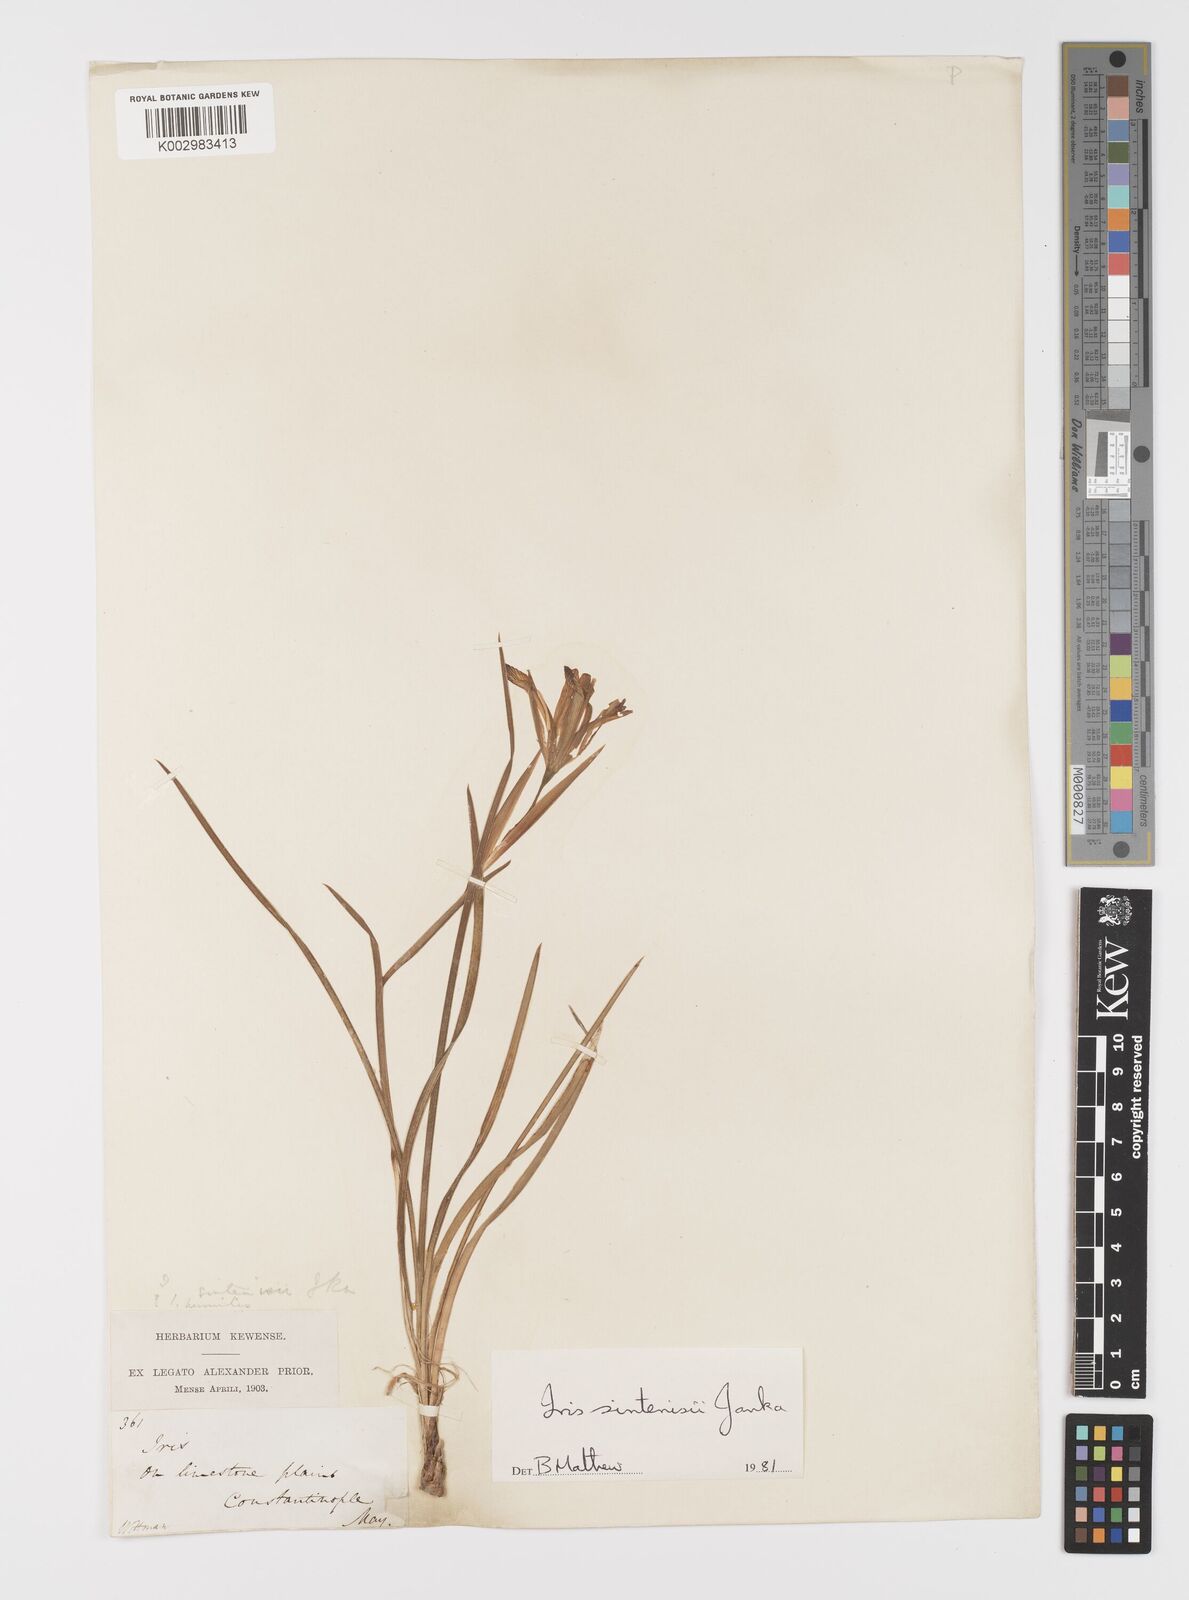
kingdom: Plantae
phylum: Tracheophyta
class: Liliopsida
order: Asparagales
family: Iridaceae
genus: Iris
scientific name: Iris sintenisii
